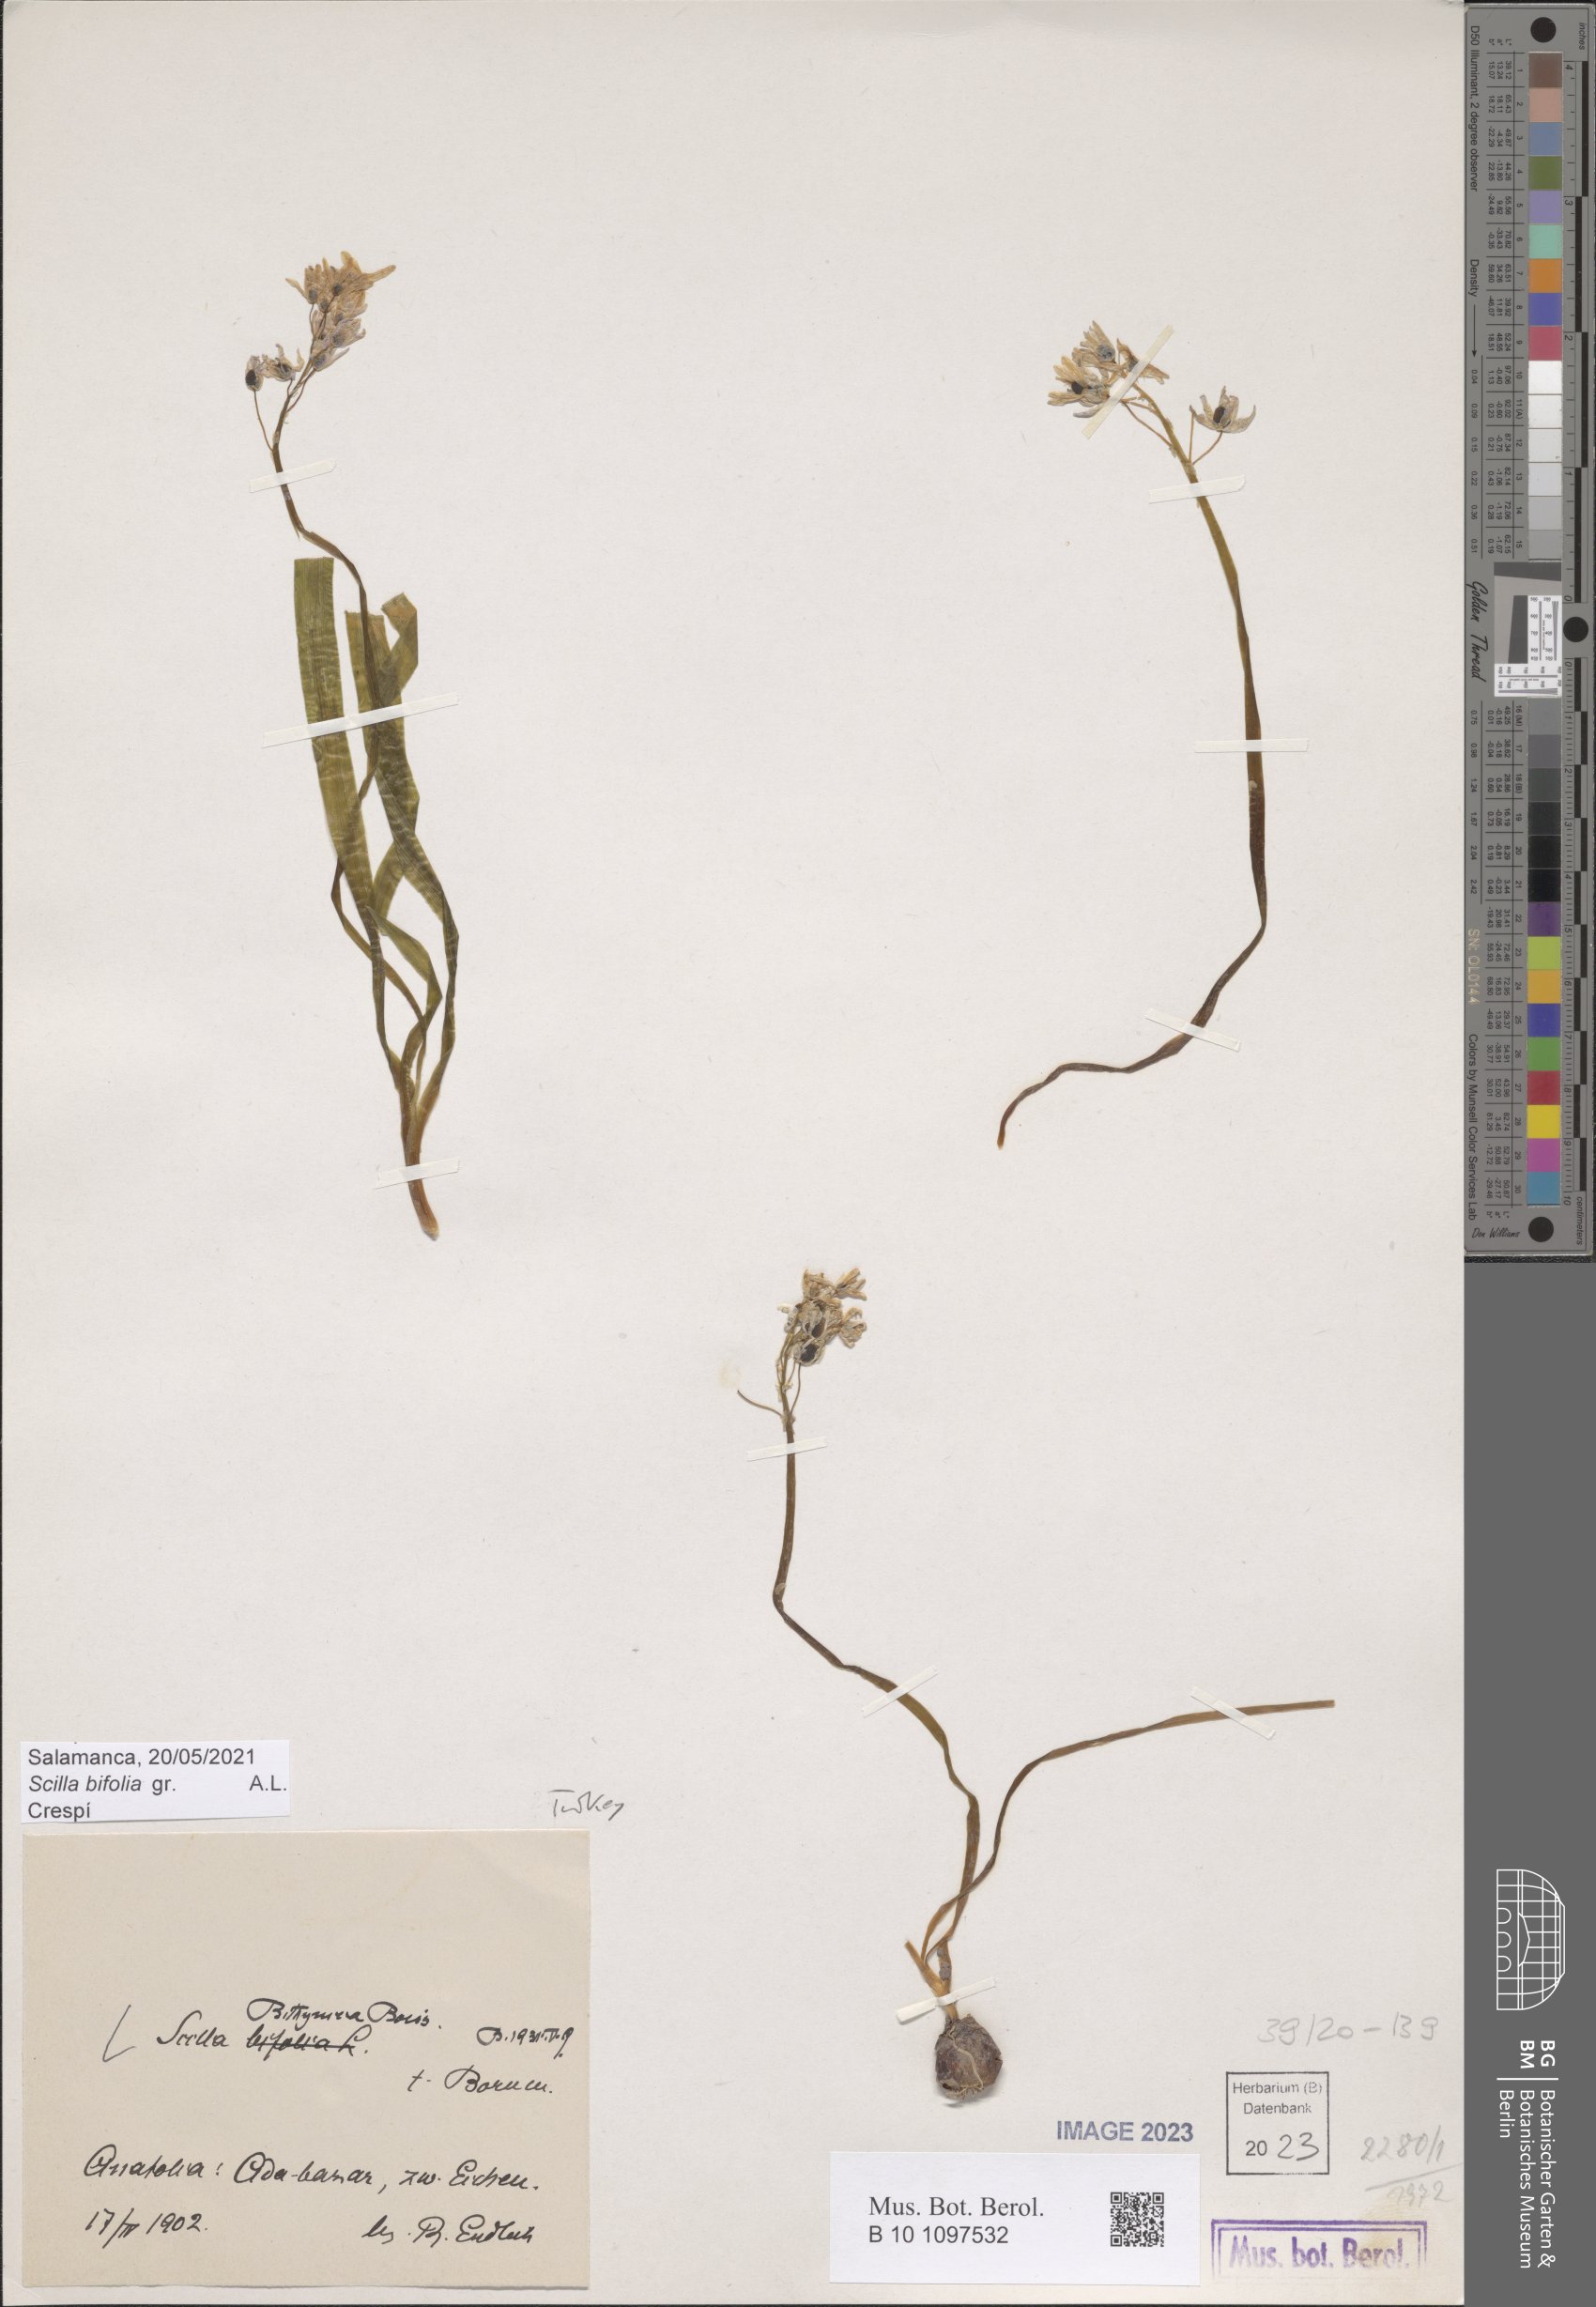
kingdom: Plantae
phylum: Tracheophyta
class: Liliopsida
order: Asparagales
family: Asparagaceae
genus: Scilla
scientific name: Scilla bithynica
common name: Turkish squill
